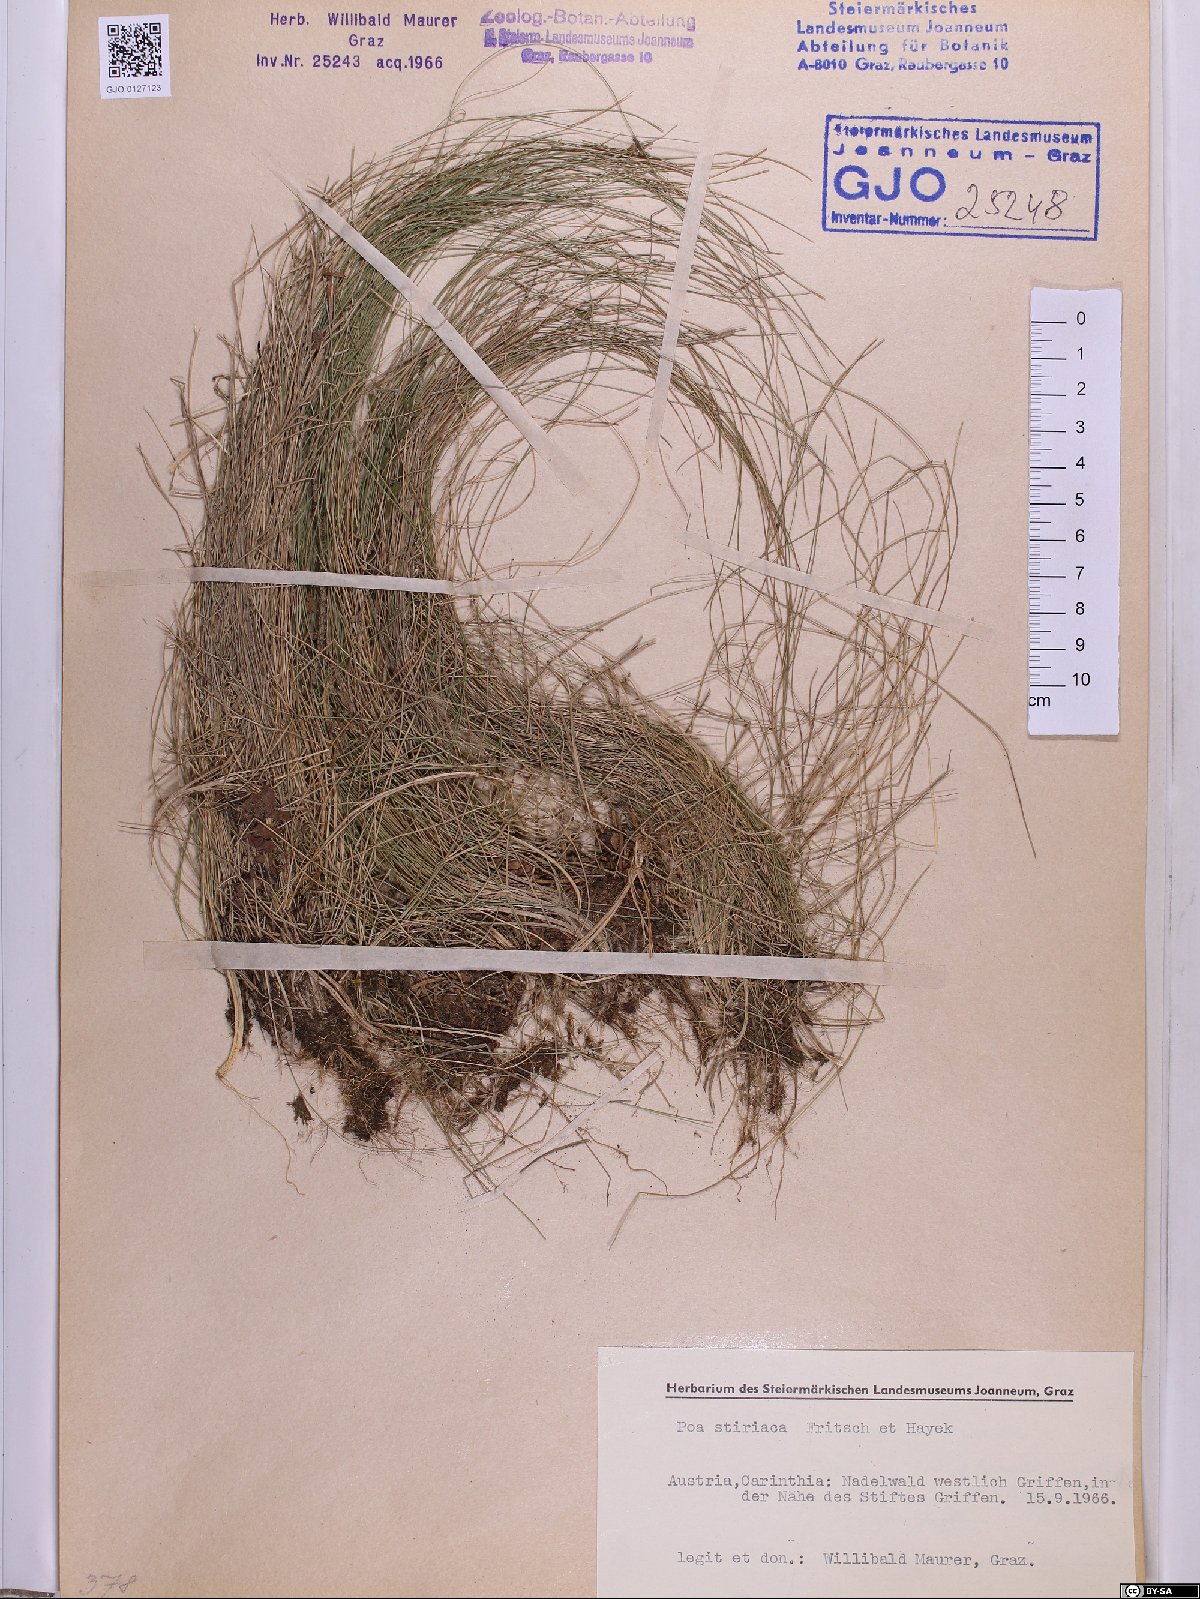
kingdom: Plantae
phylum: Tracheophyta
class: Liliopsida
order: Poales
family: Poaceae
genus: Poa
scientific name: Poa stiriaca
